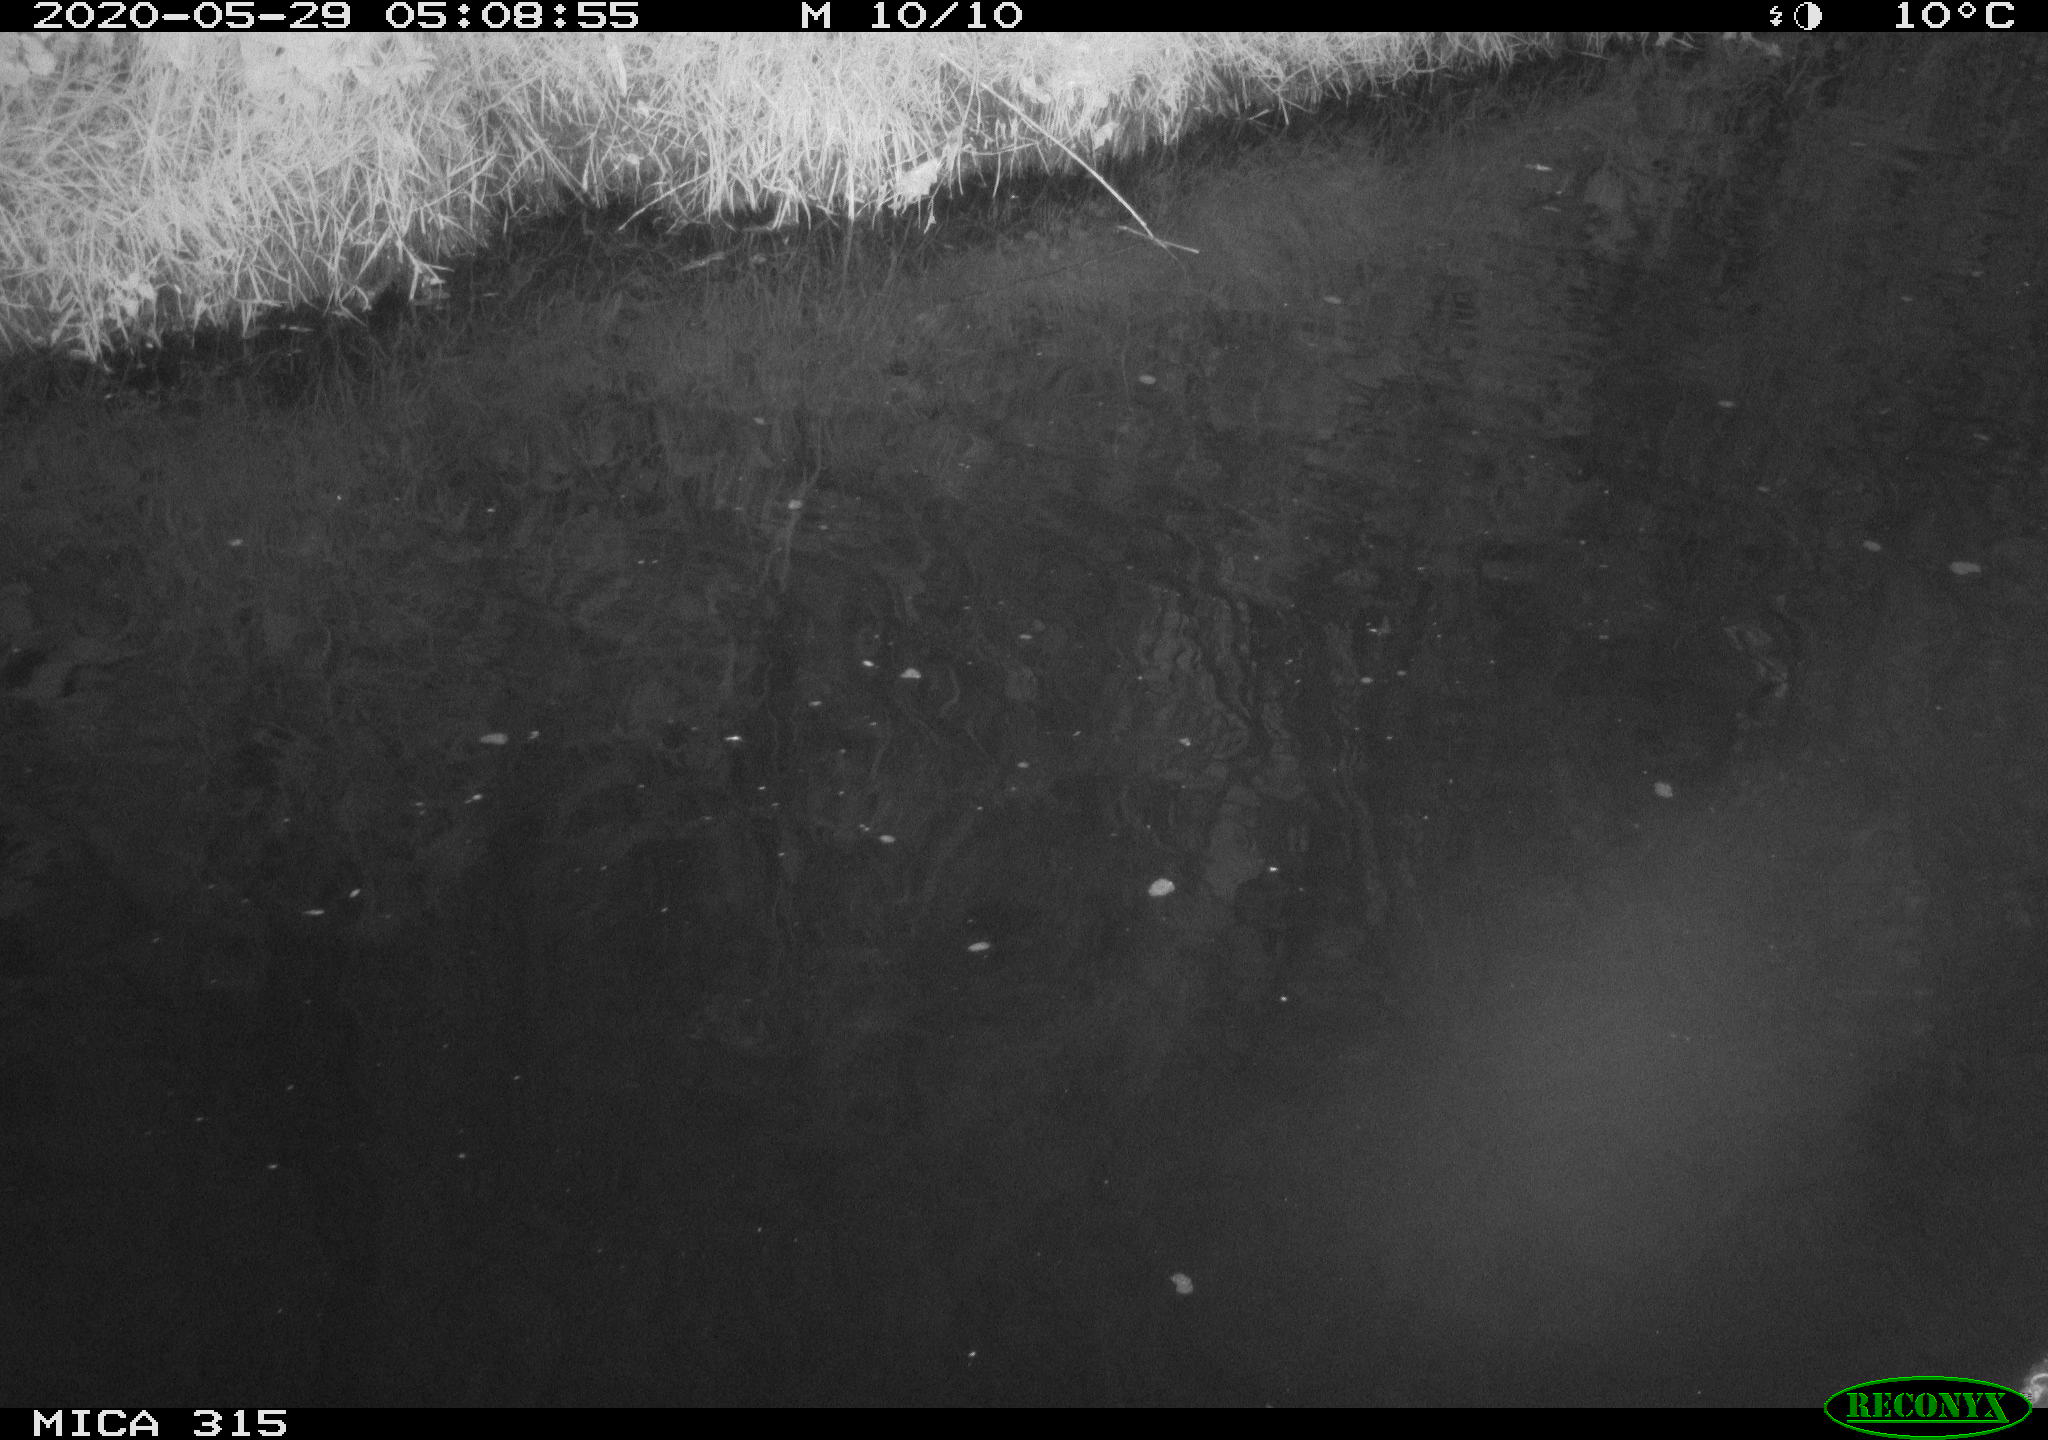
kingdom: Animalia
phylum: Chordata
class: Aves
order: Anseriformes
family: Anatidae
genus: Anas
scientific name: Anas platyrhynchos
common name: Mallard
